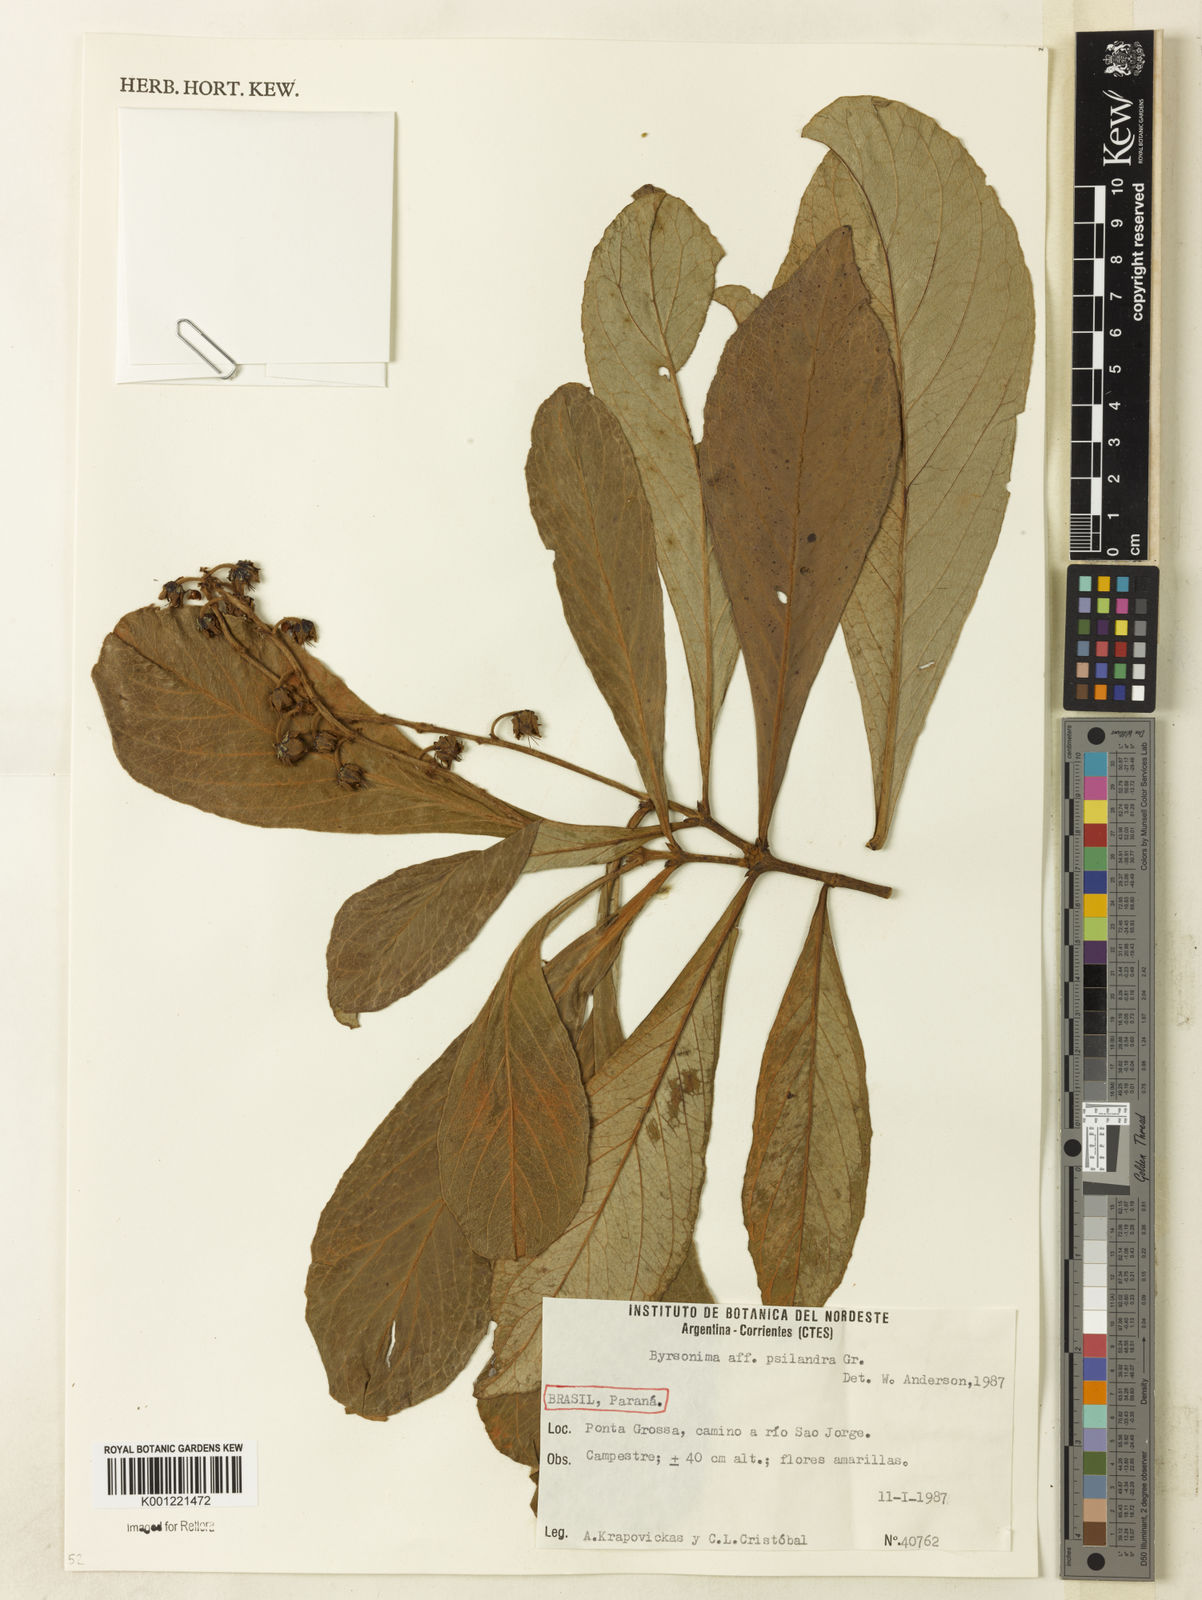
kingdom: Plantae
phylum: Tracheophyta
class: Magnoliopsida
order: Malpighiales
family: Malpighiaceae
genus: Byrsonima
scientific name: Byrsonima psilandra
